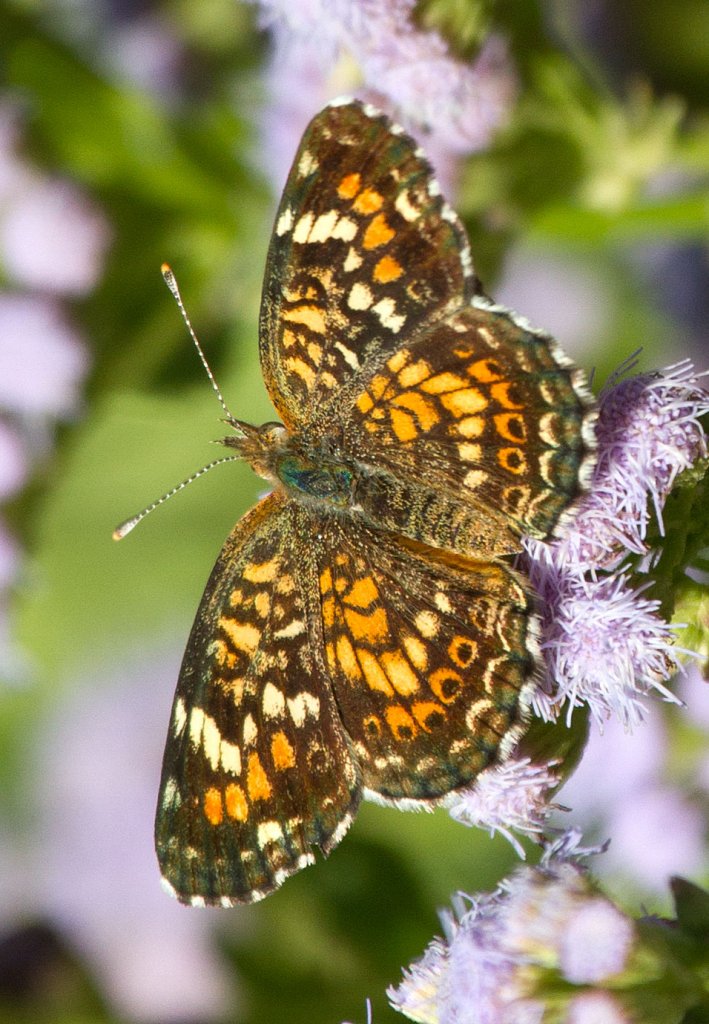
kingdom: Animalia
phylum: Arthropoda
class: Insecta
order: Lepidoptera
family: Nymphalidae
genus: Phyciodes
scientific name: Phyciodes phaon
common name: Phaon Crescent
